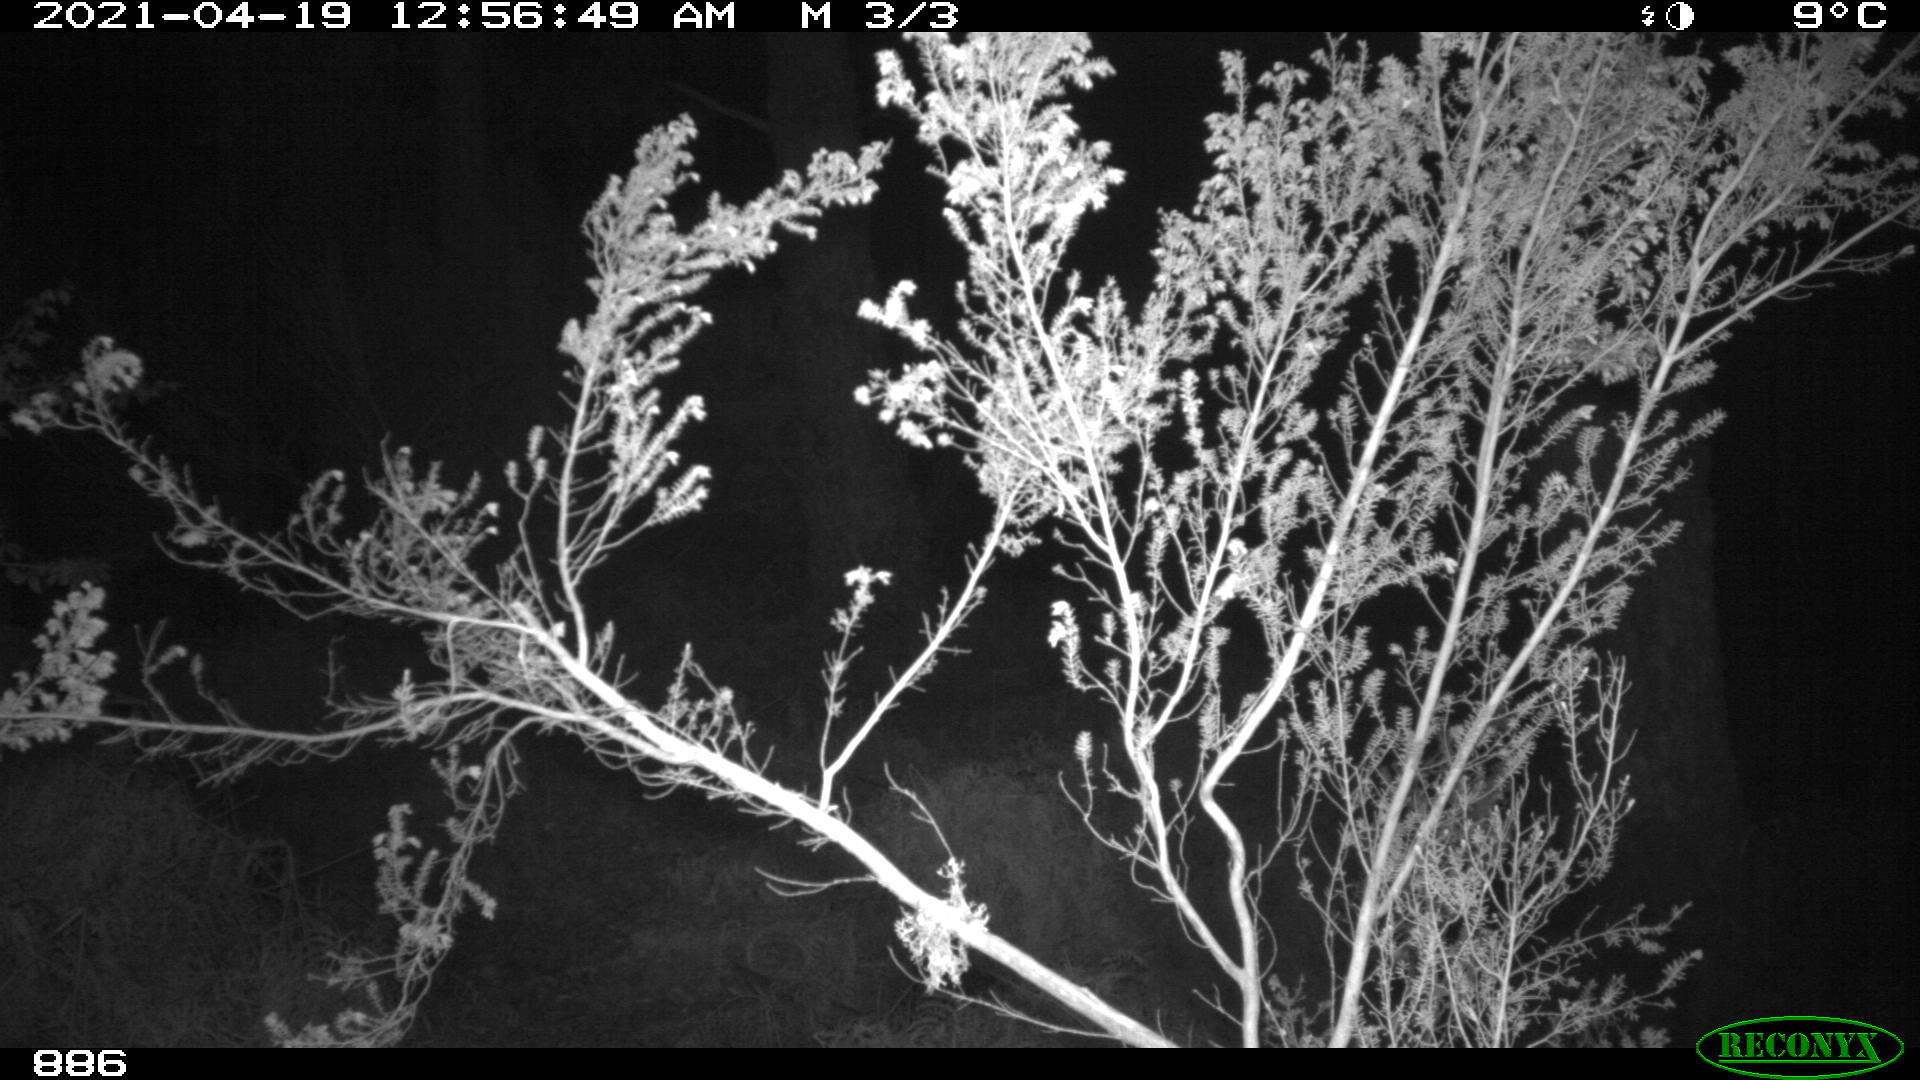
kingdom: Animalia
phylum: Chordata
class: Mammalia
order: Perissodactyla
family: Equidae
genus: Equus
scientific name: Equus caballus
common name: Horse
